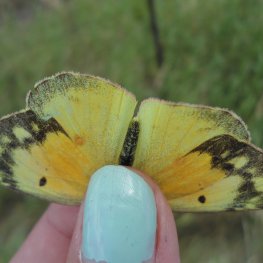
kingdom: Animalia
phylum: Arthropoda
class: Insecta
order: Lepidoptera
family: Pieridae
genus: Colias
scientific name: Colias eurytheme
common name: Orange Sulphur
